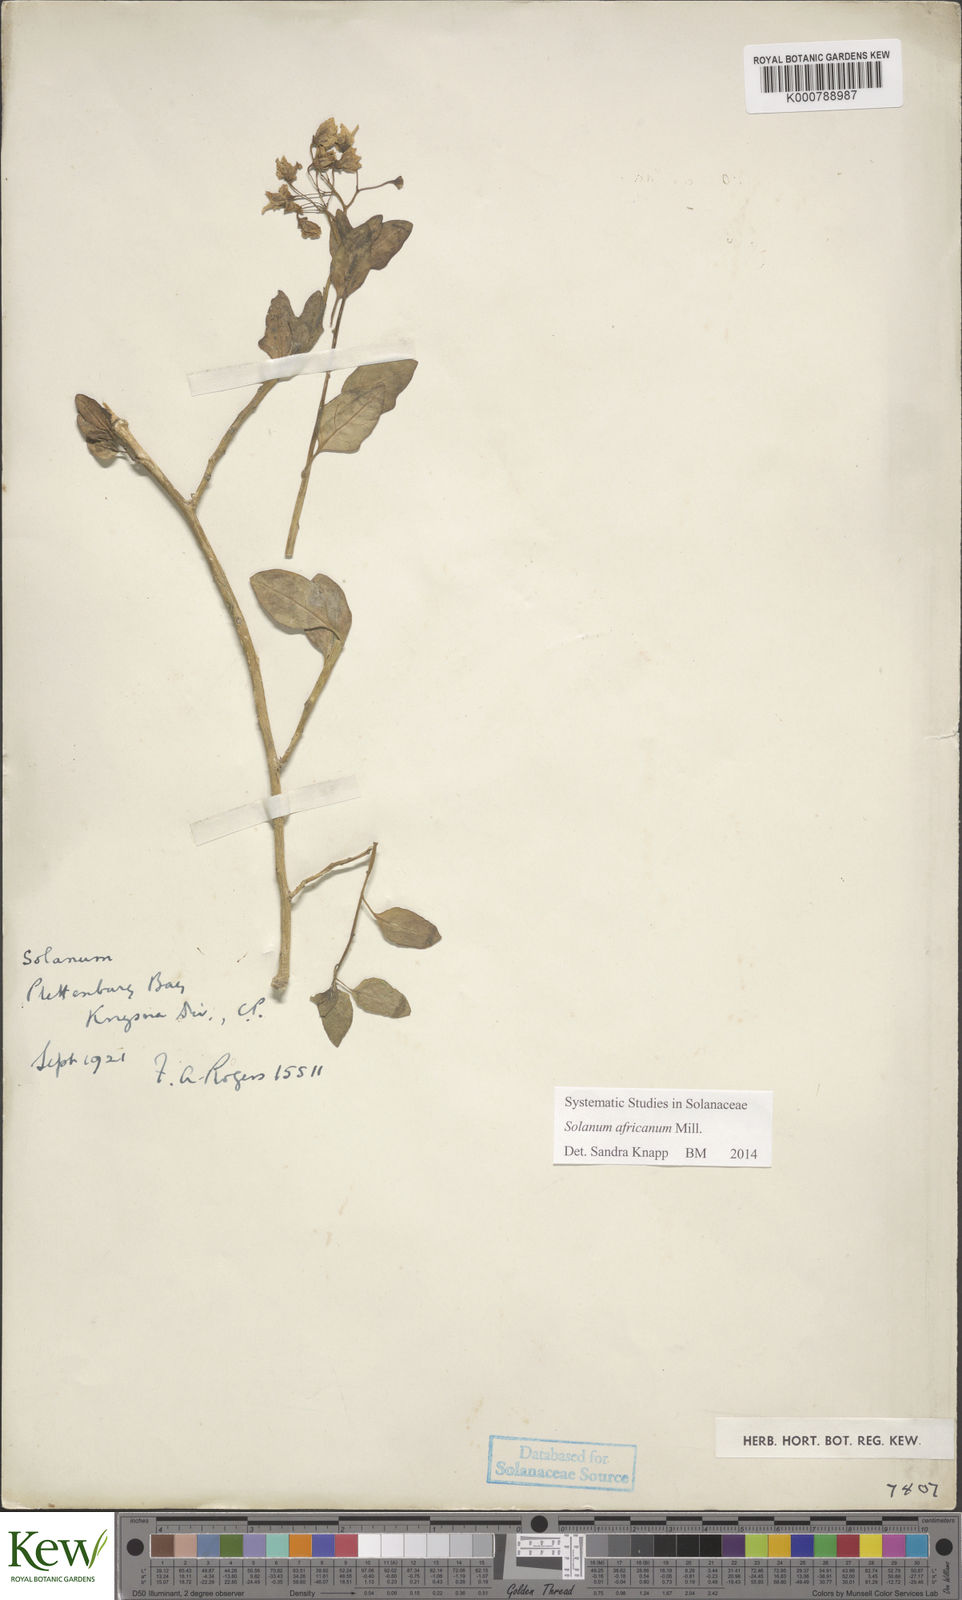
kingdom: Plantae
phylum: Tracheophyta
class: Magnoliopsida
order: Solanales
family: Solanaceae
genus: Solanum
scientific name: Solanum africanum
